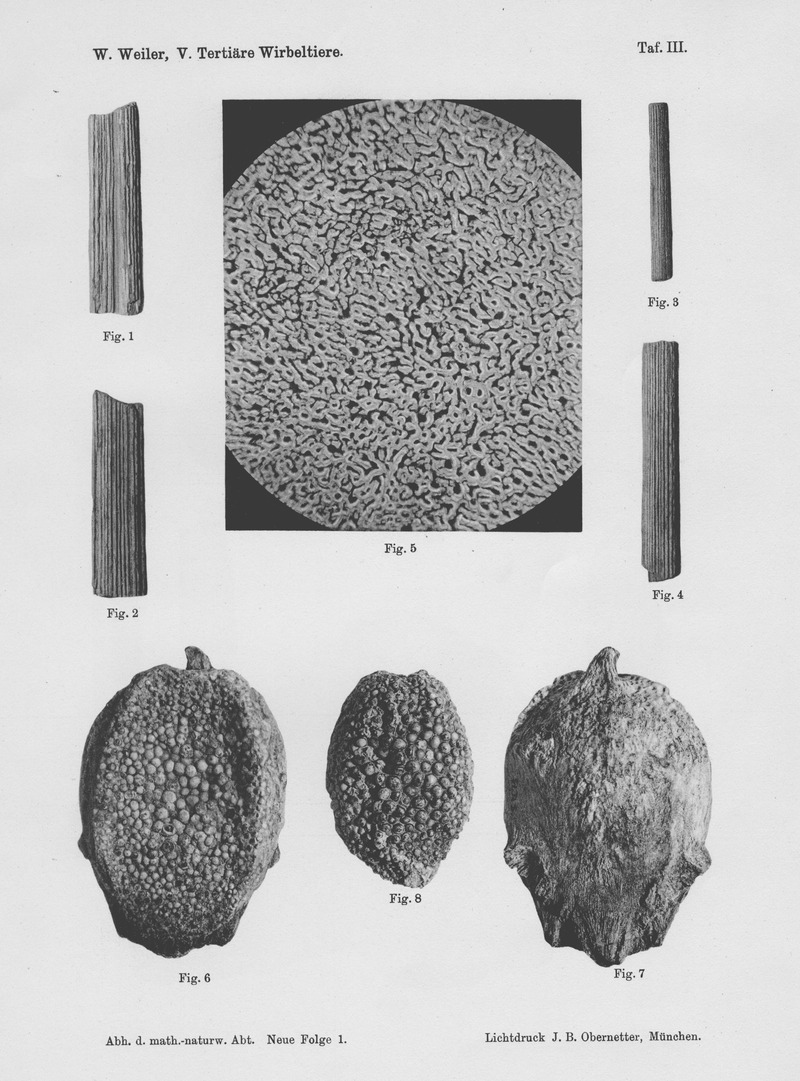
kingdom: Animalia
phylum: Chordata
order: Anguilliformes
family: Phyllodontidae
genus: Paralbula
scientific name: Paralbula Egertonia stromeri
